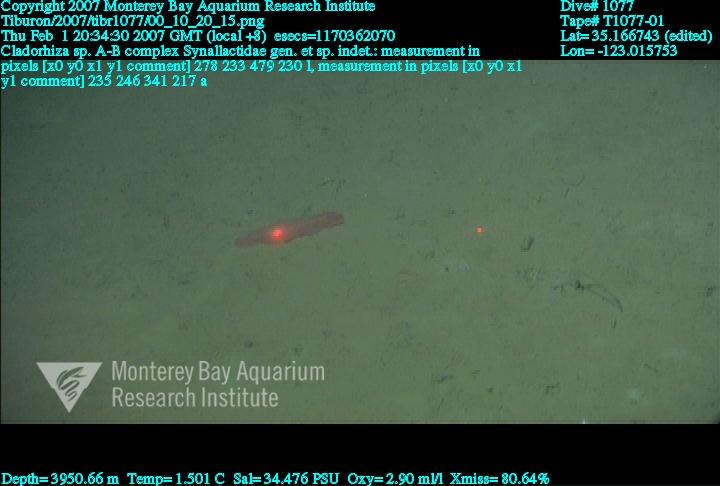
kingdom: Animalia
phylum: Porifera
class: Demospongiae
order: Poecilosclerida
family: Cladorhizidae
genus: Cladorhiza
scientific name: Cladorhiza
